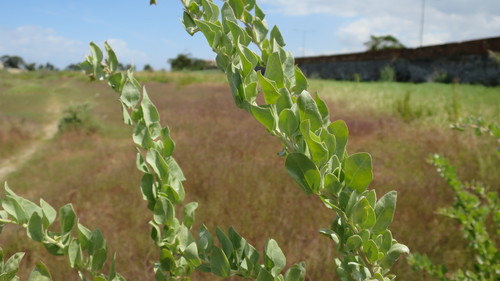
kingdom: Plantae
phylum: Tracheophyta
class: Magnoliopsida
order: Caryophyllales
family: Amaranthaceae
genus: Atriplex
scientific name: Atriplex halimus
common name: Shrubby orache
